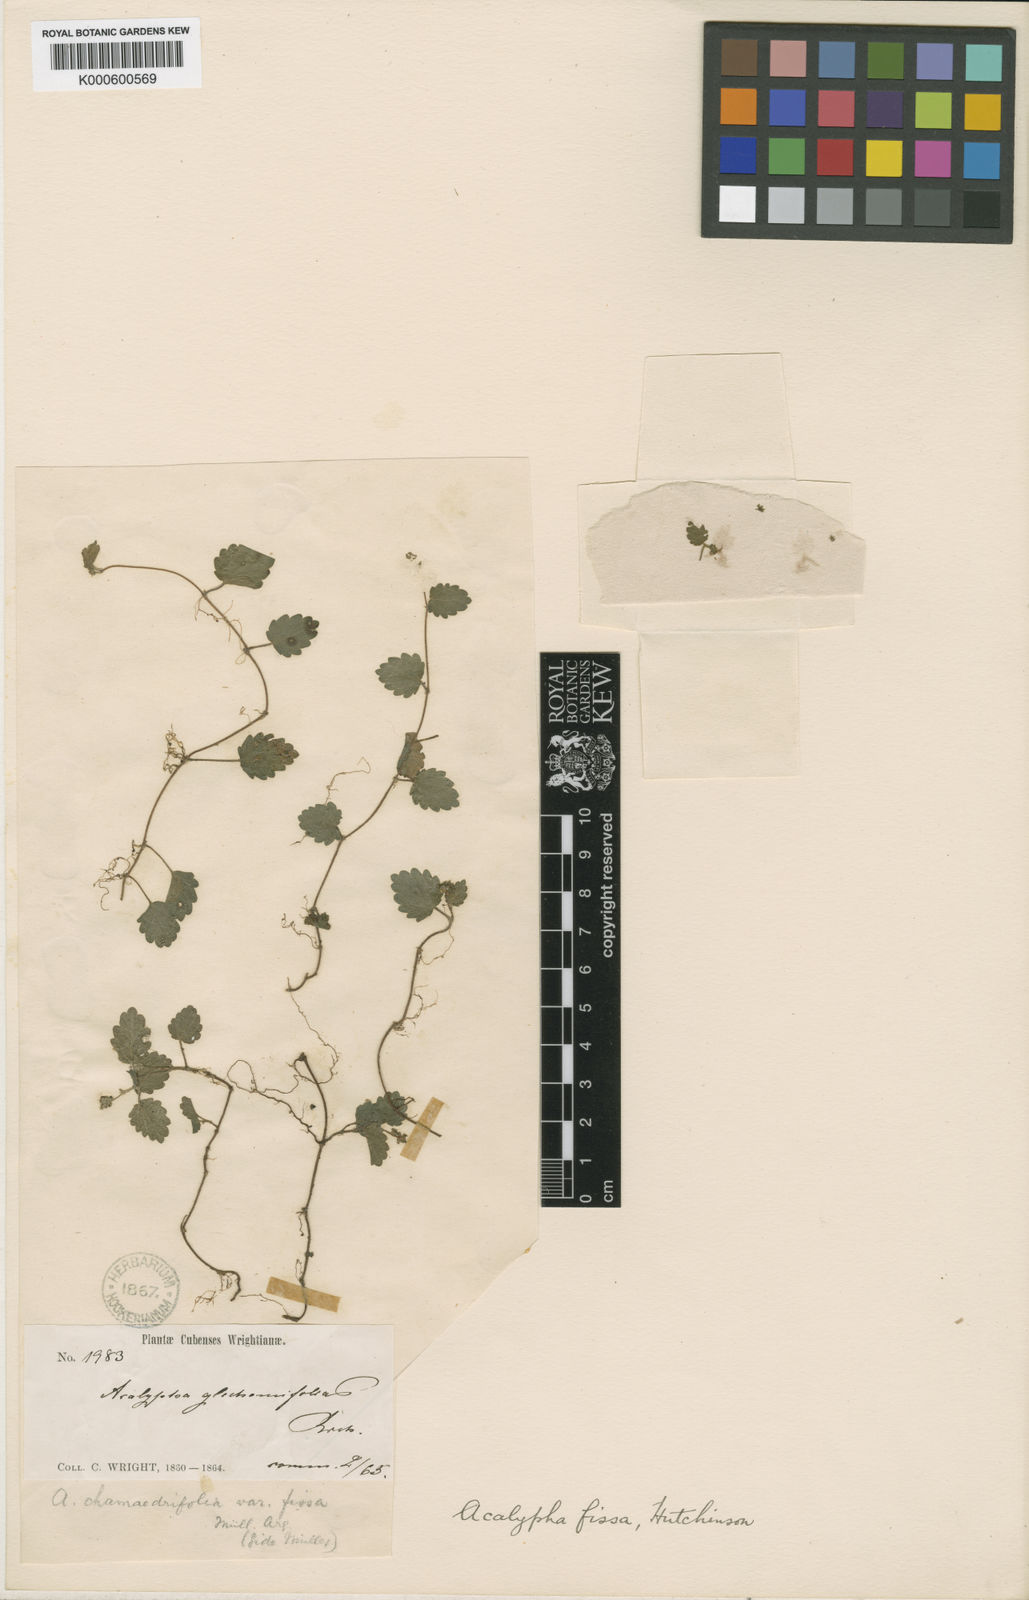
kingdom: Plantae
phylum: Tracheophyta
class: Magnoliopsida
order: Malpighiales
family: Euphorbiaceae
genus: Acalypha
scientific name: Acalypha
